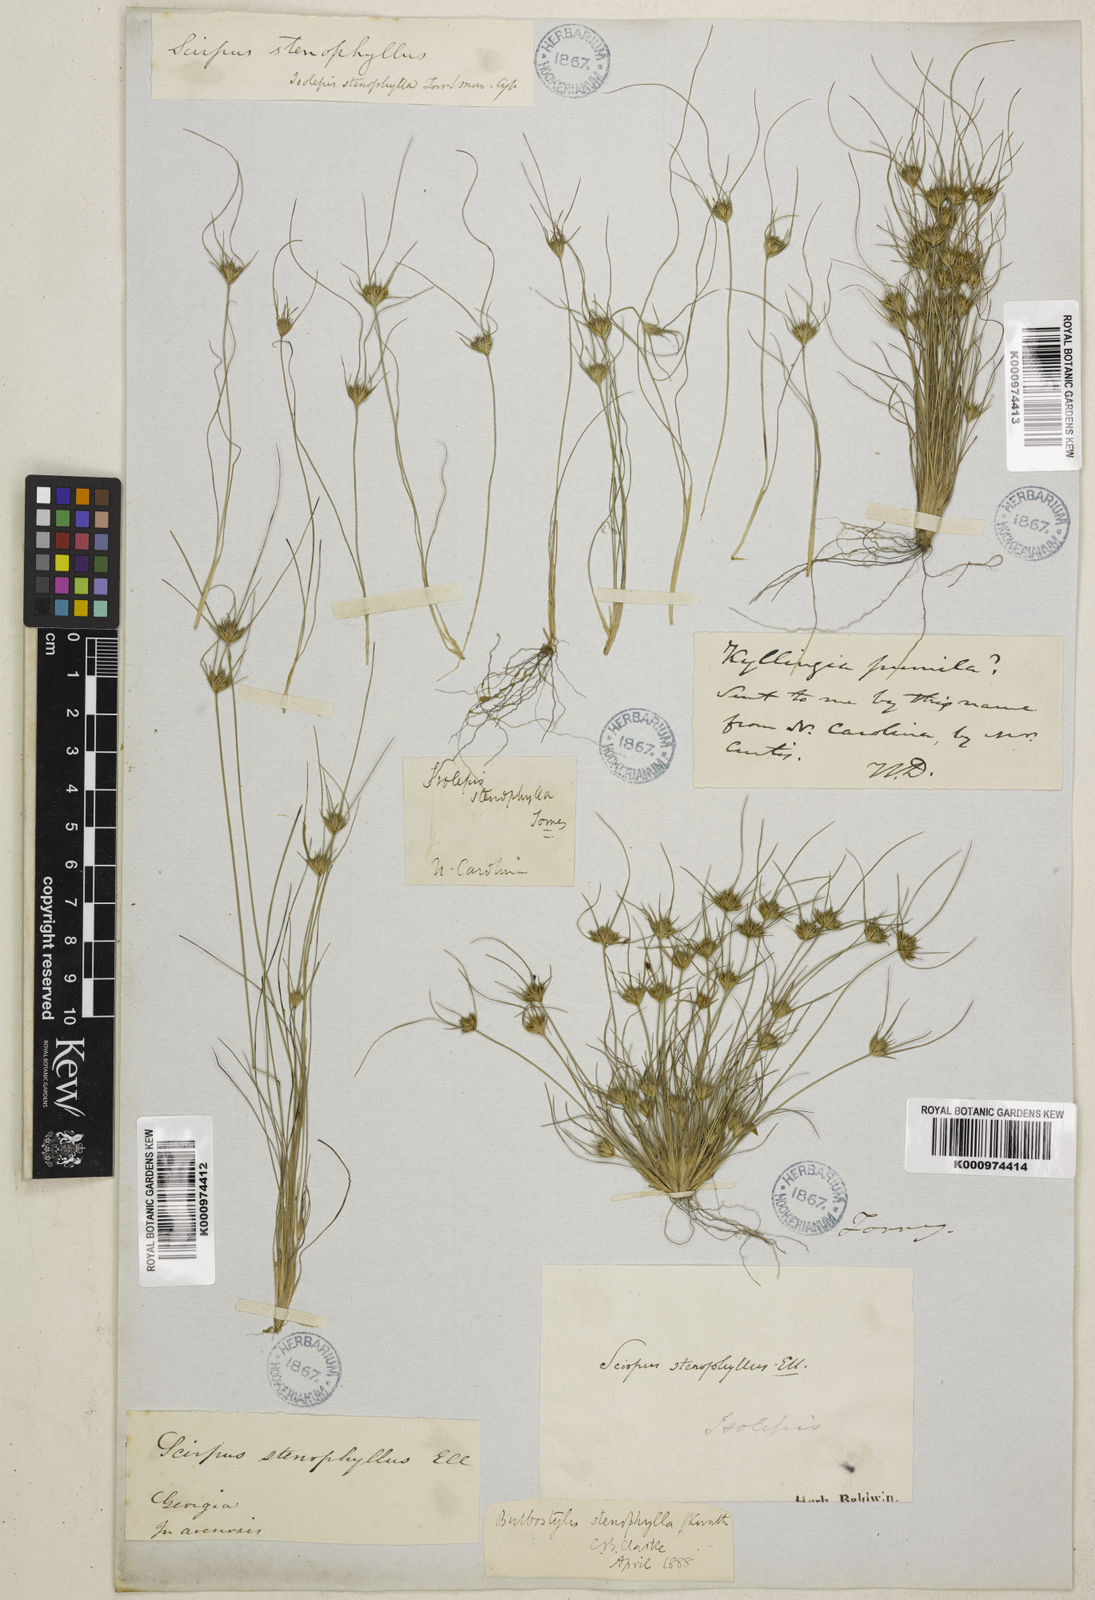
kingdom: Plantae
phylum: Tracheophyta
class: Liliopsida
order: Poales
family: Cyperaceae
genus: Bulbostylis
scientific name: Bulbostylis stenophylla
